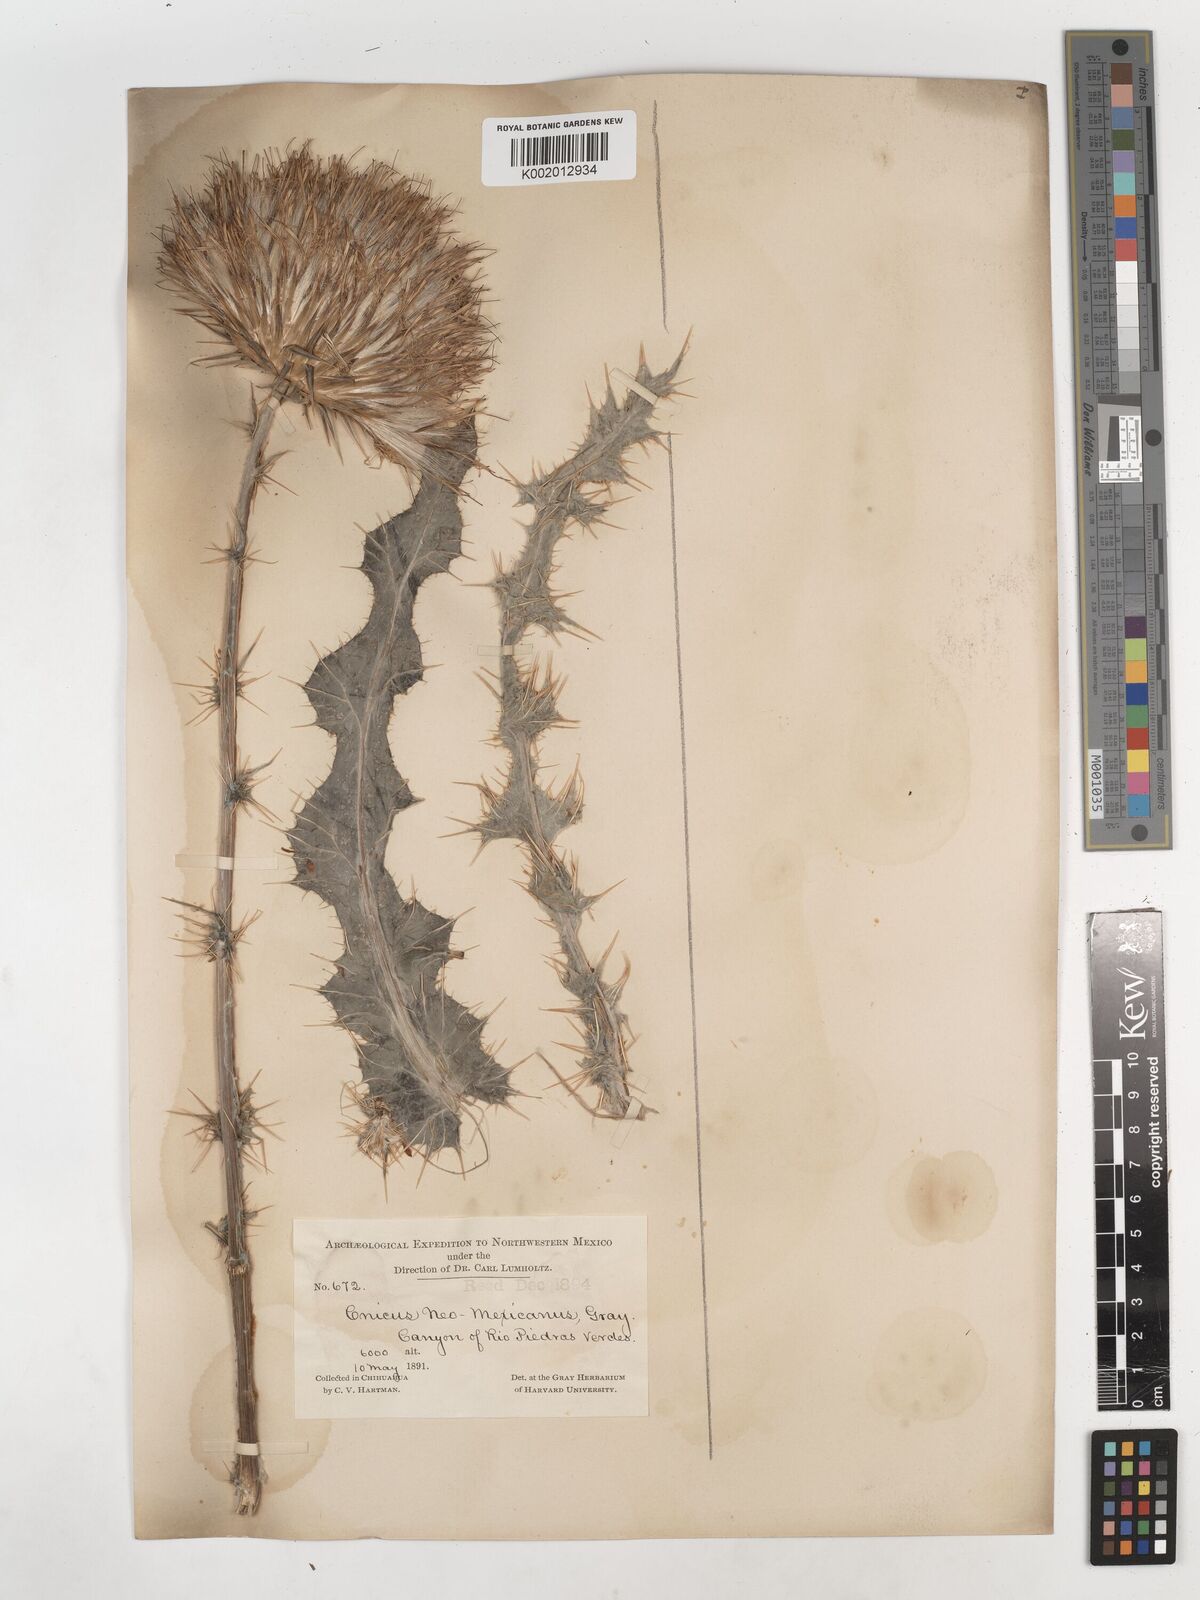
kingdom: Plantae
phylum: Tracheophyta
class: Magnoliopsida
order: Asterales
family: Asteraceae
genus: Cirsium
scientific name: Cirsium neomexicanum
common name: New mexico thistle
